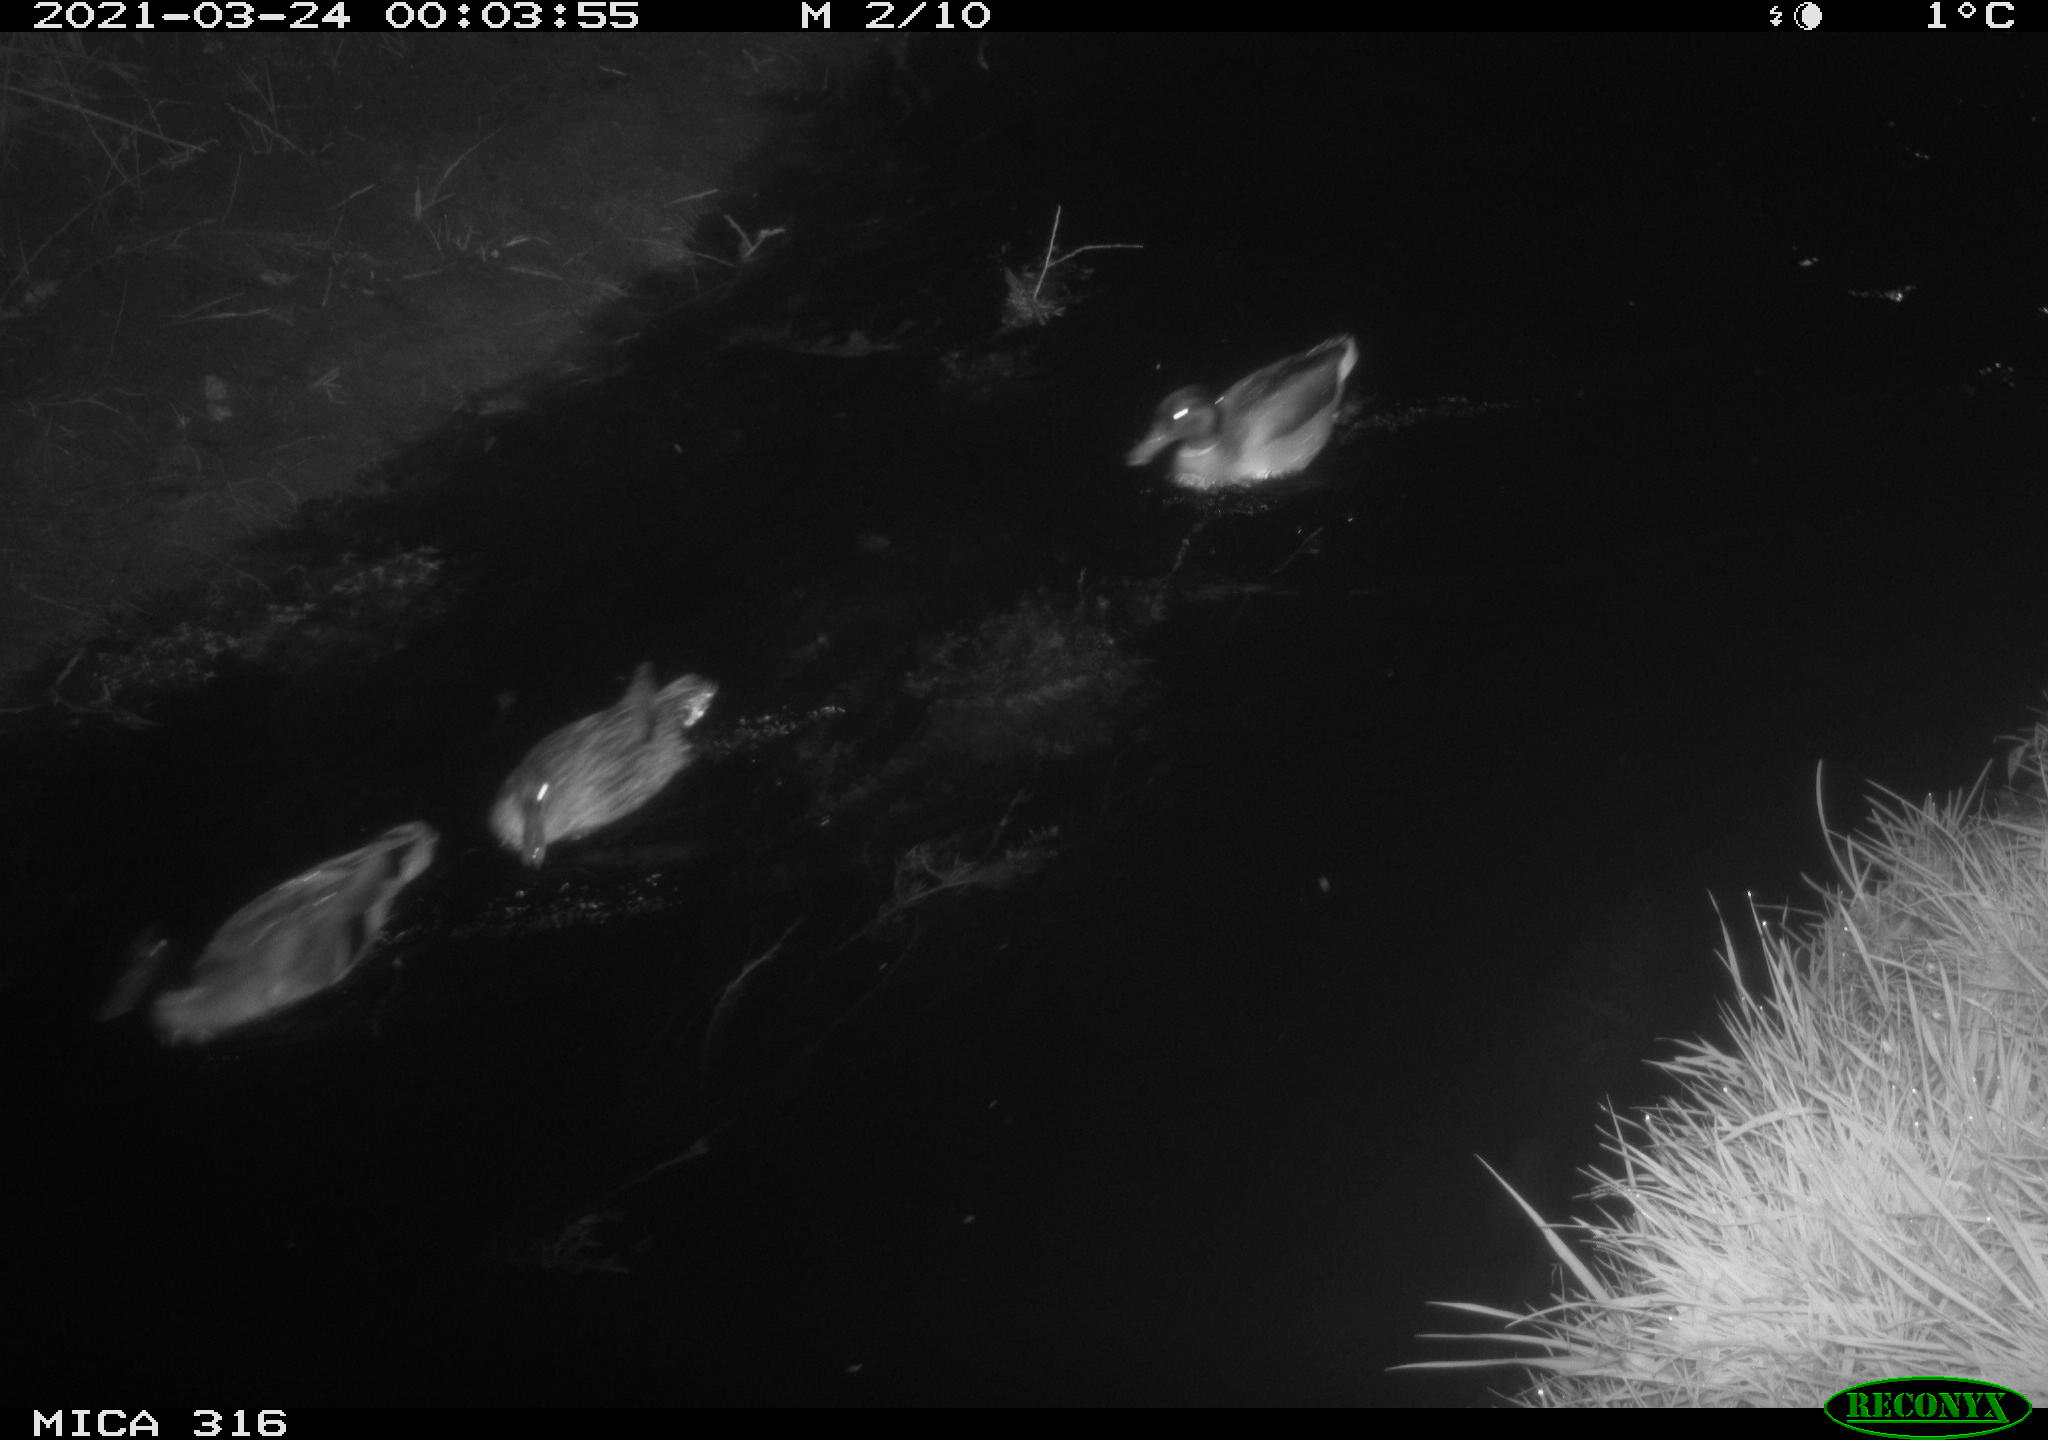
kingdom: Animalia
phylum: Chordata
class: Aves
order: Anseriformes
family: Anatidae
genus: Anas
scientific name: Anas platyrhynchos
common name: Mallard
